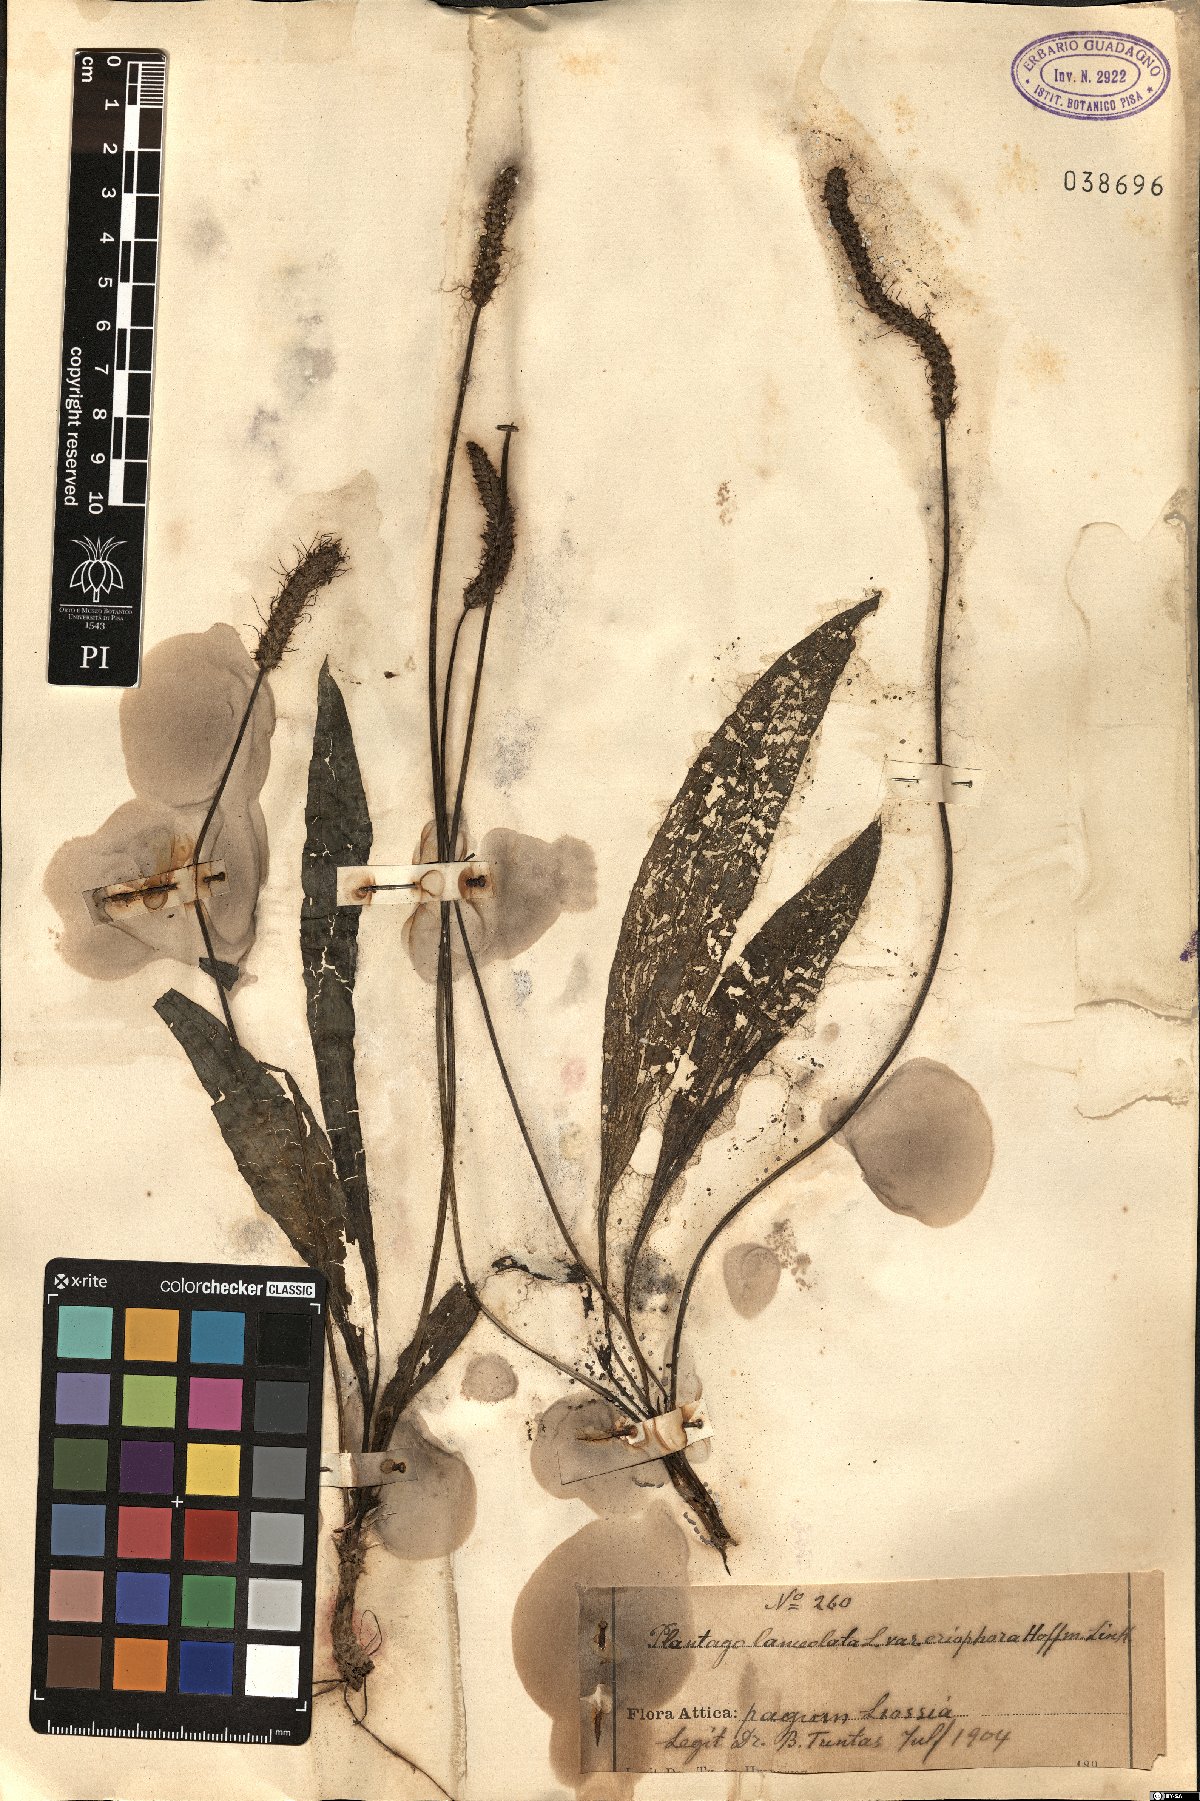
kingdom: Plantae
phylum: Tracheophyta
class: Magnoliopsida
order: Lamiales
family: Plantaginaceae
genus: Plantago
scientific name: Plantago lanceolata
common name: Ribwort plantain
